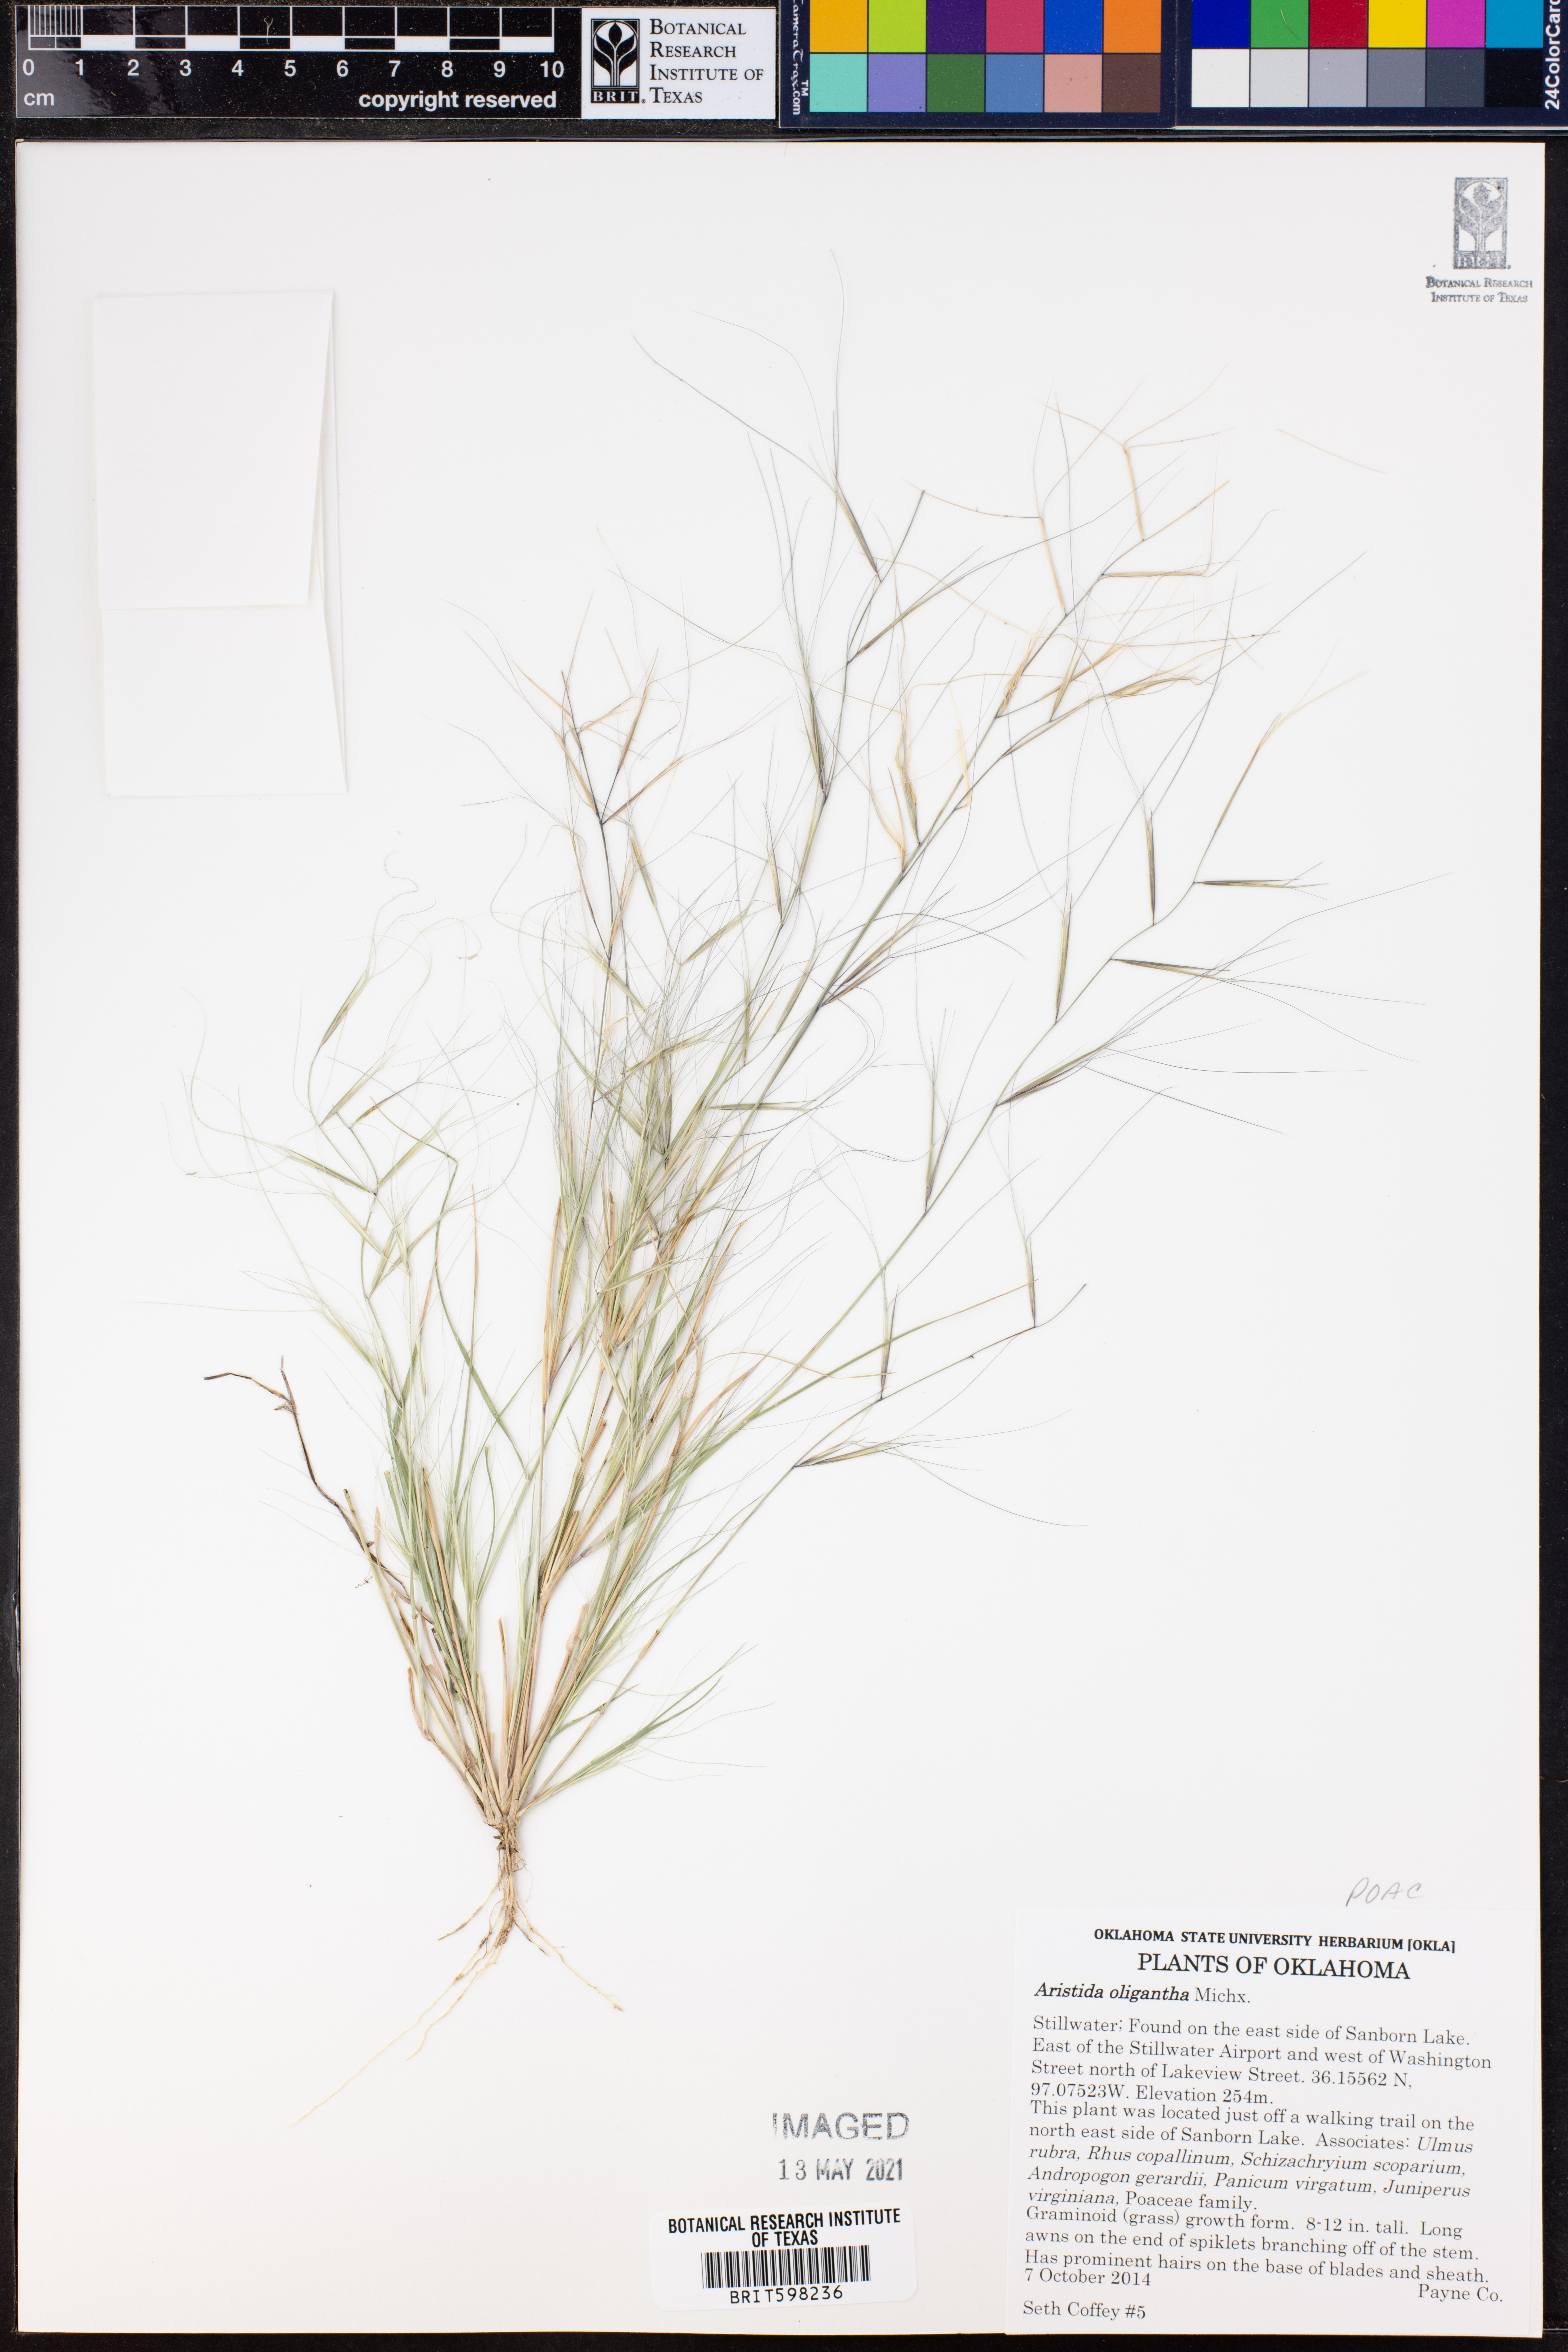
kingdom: Plantae
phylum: Tracheophyta
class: Liliopsida
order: Poales
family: Poaceae
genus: Aristida
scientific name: Aristida oligantha
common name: Few-flowered aristida
